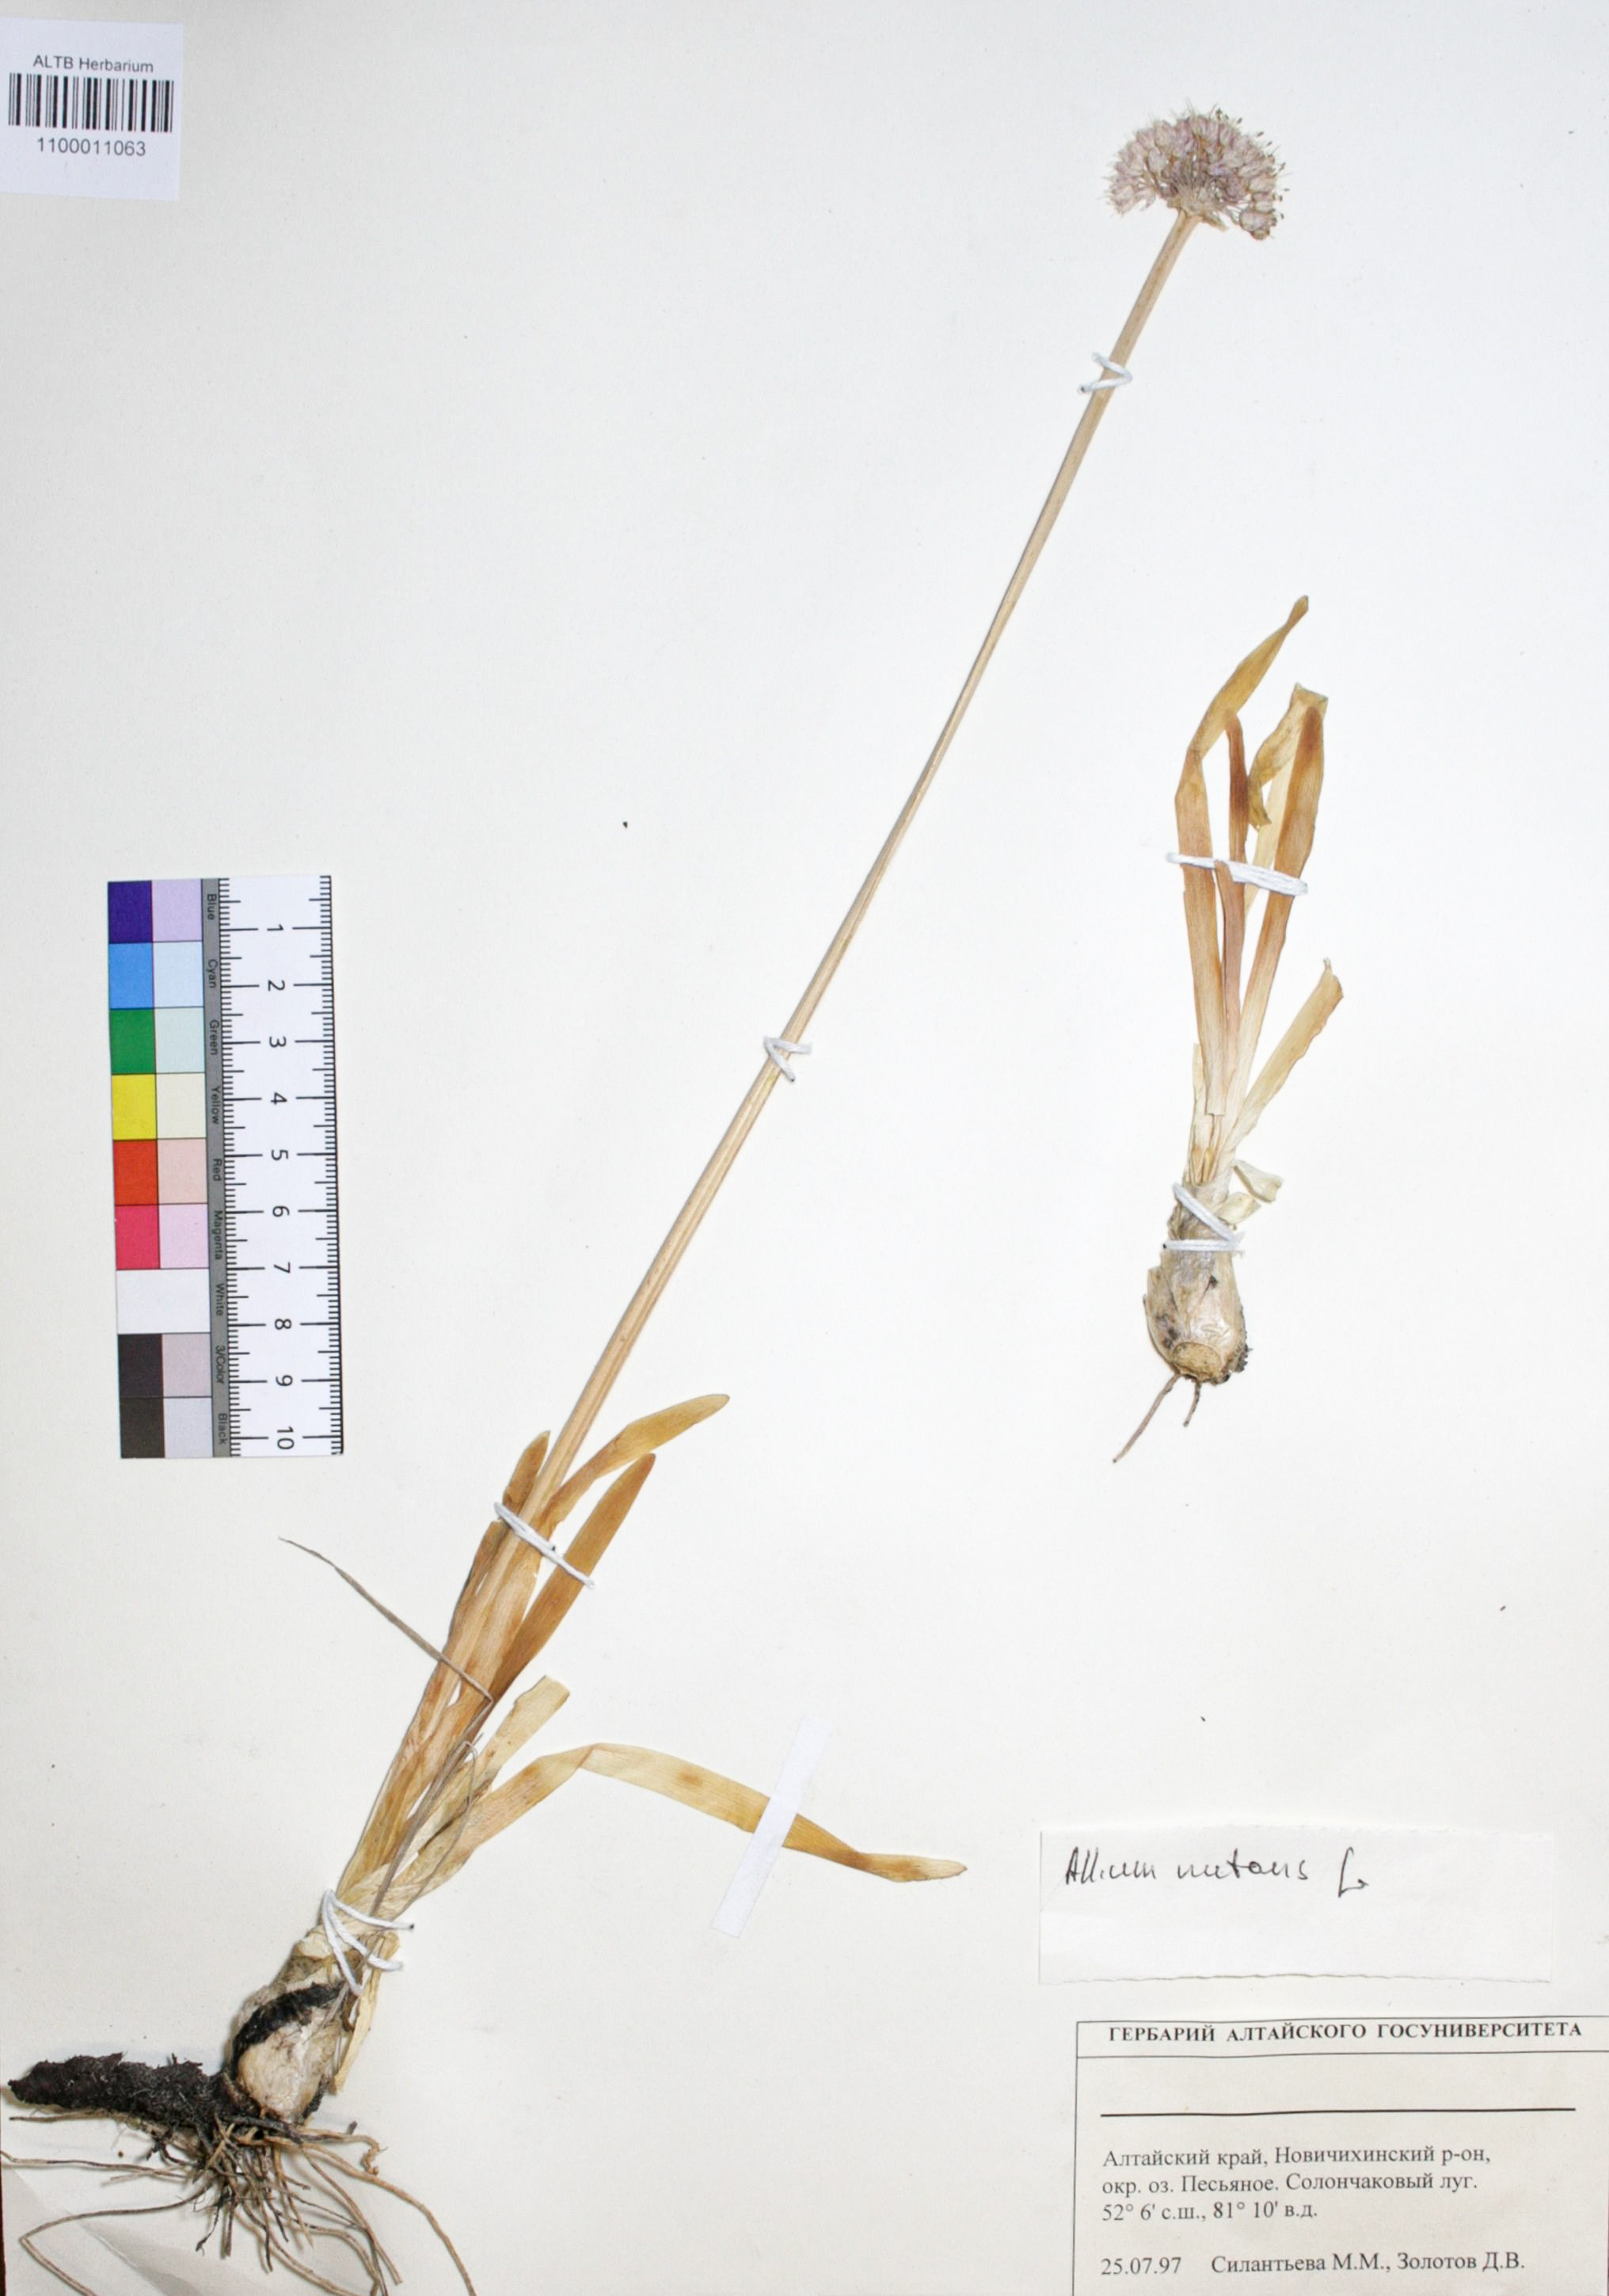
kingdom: Plantae
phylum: Tracheophyta
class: Liliopsida
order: Asparagales
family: Amaryllidaceae
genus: Allium
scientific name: Allium nutans
